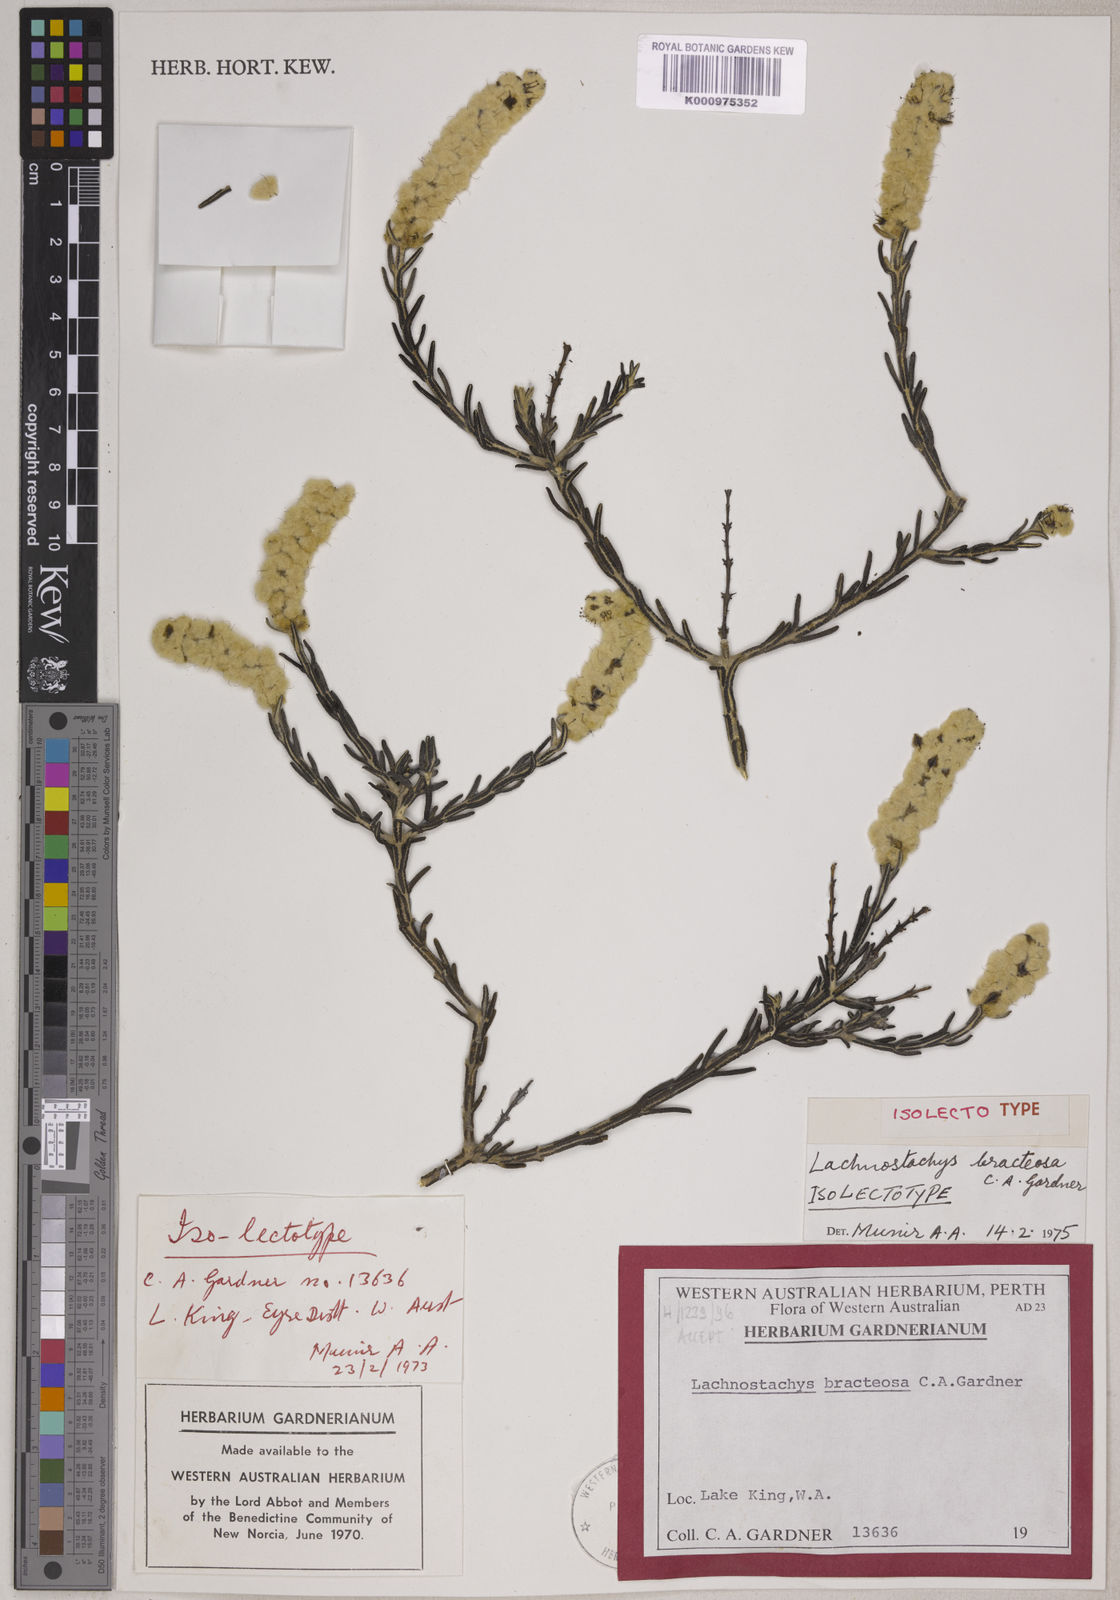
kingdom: Plantae
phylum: Tracheophyta
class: Magnoliopsida
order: Lamiales
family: Lamiaceae
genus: Lachnostachys
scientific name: Lachnostachys bracteosa
